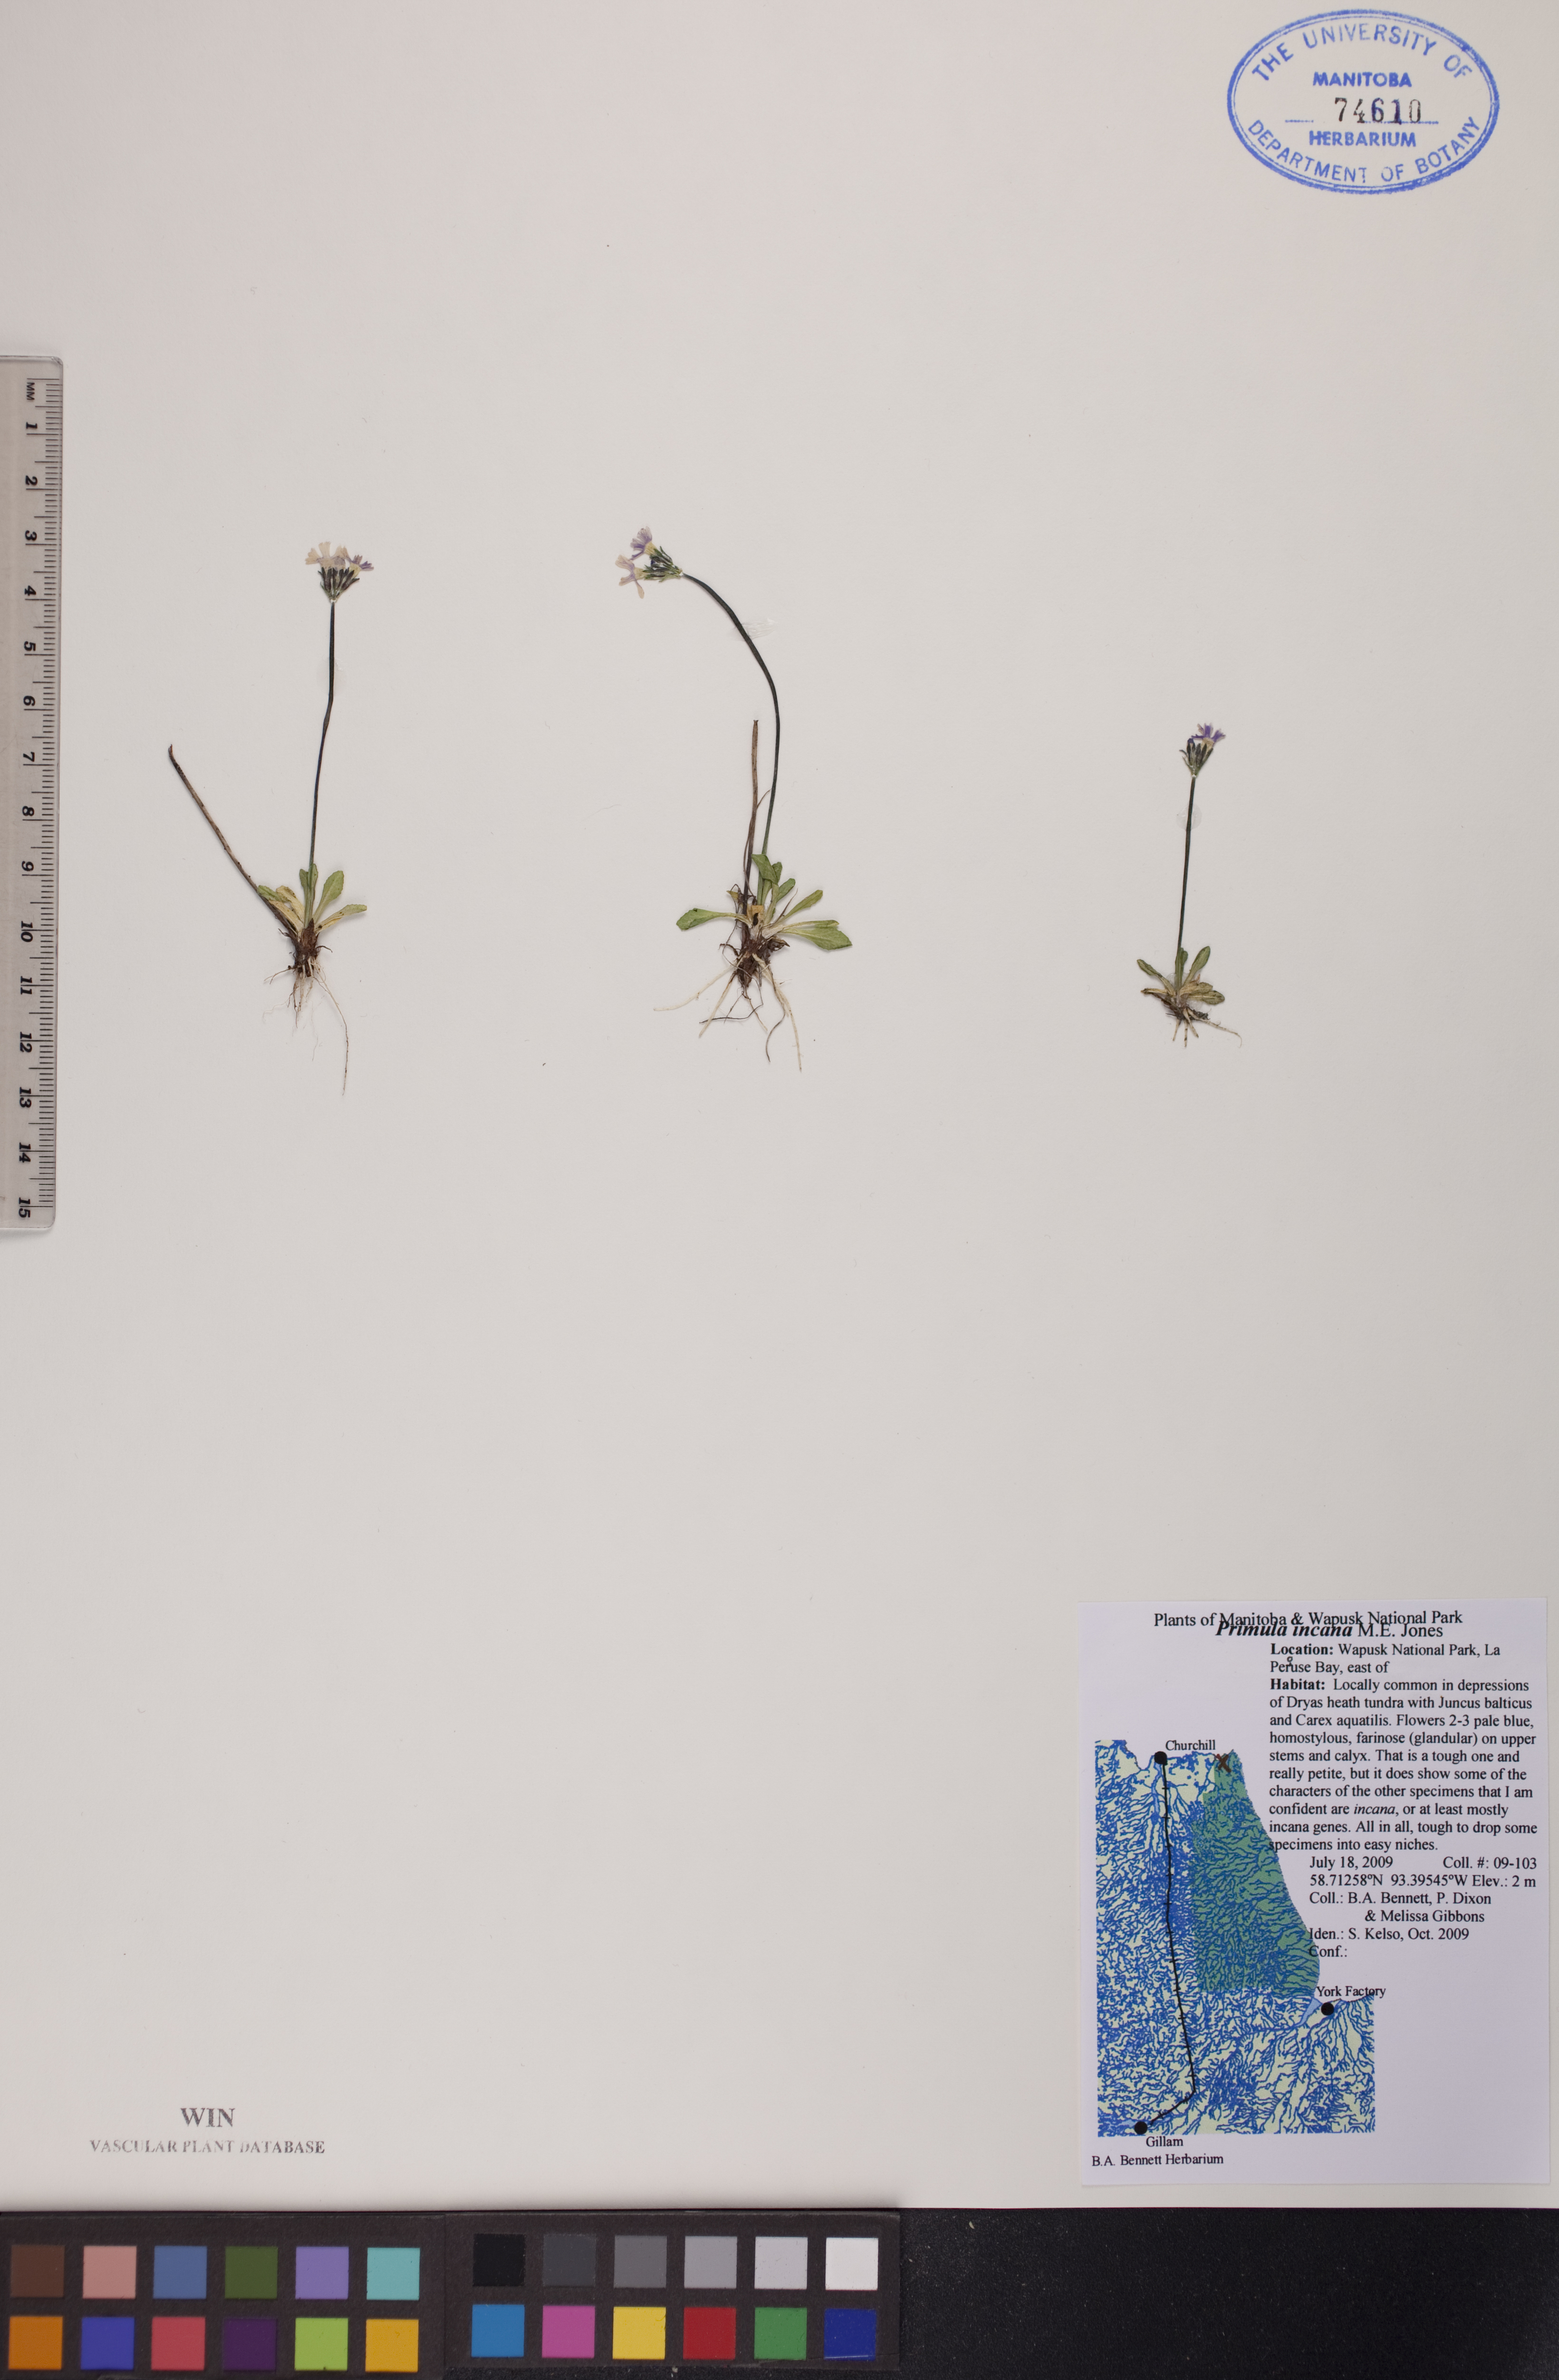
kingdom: Plantae
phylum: Tracheophyta
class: Magnoliopsida
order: Ericales
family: Primulaceae
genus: Primula
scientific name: Primula incana
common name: Hoary primrose
